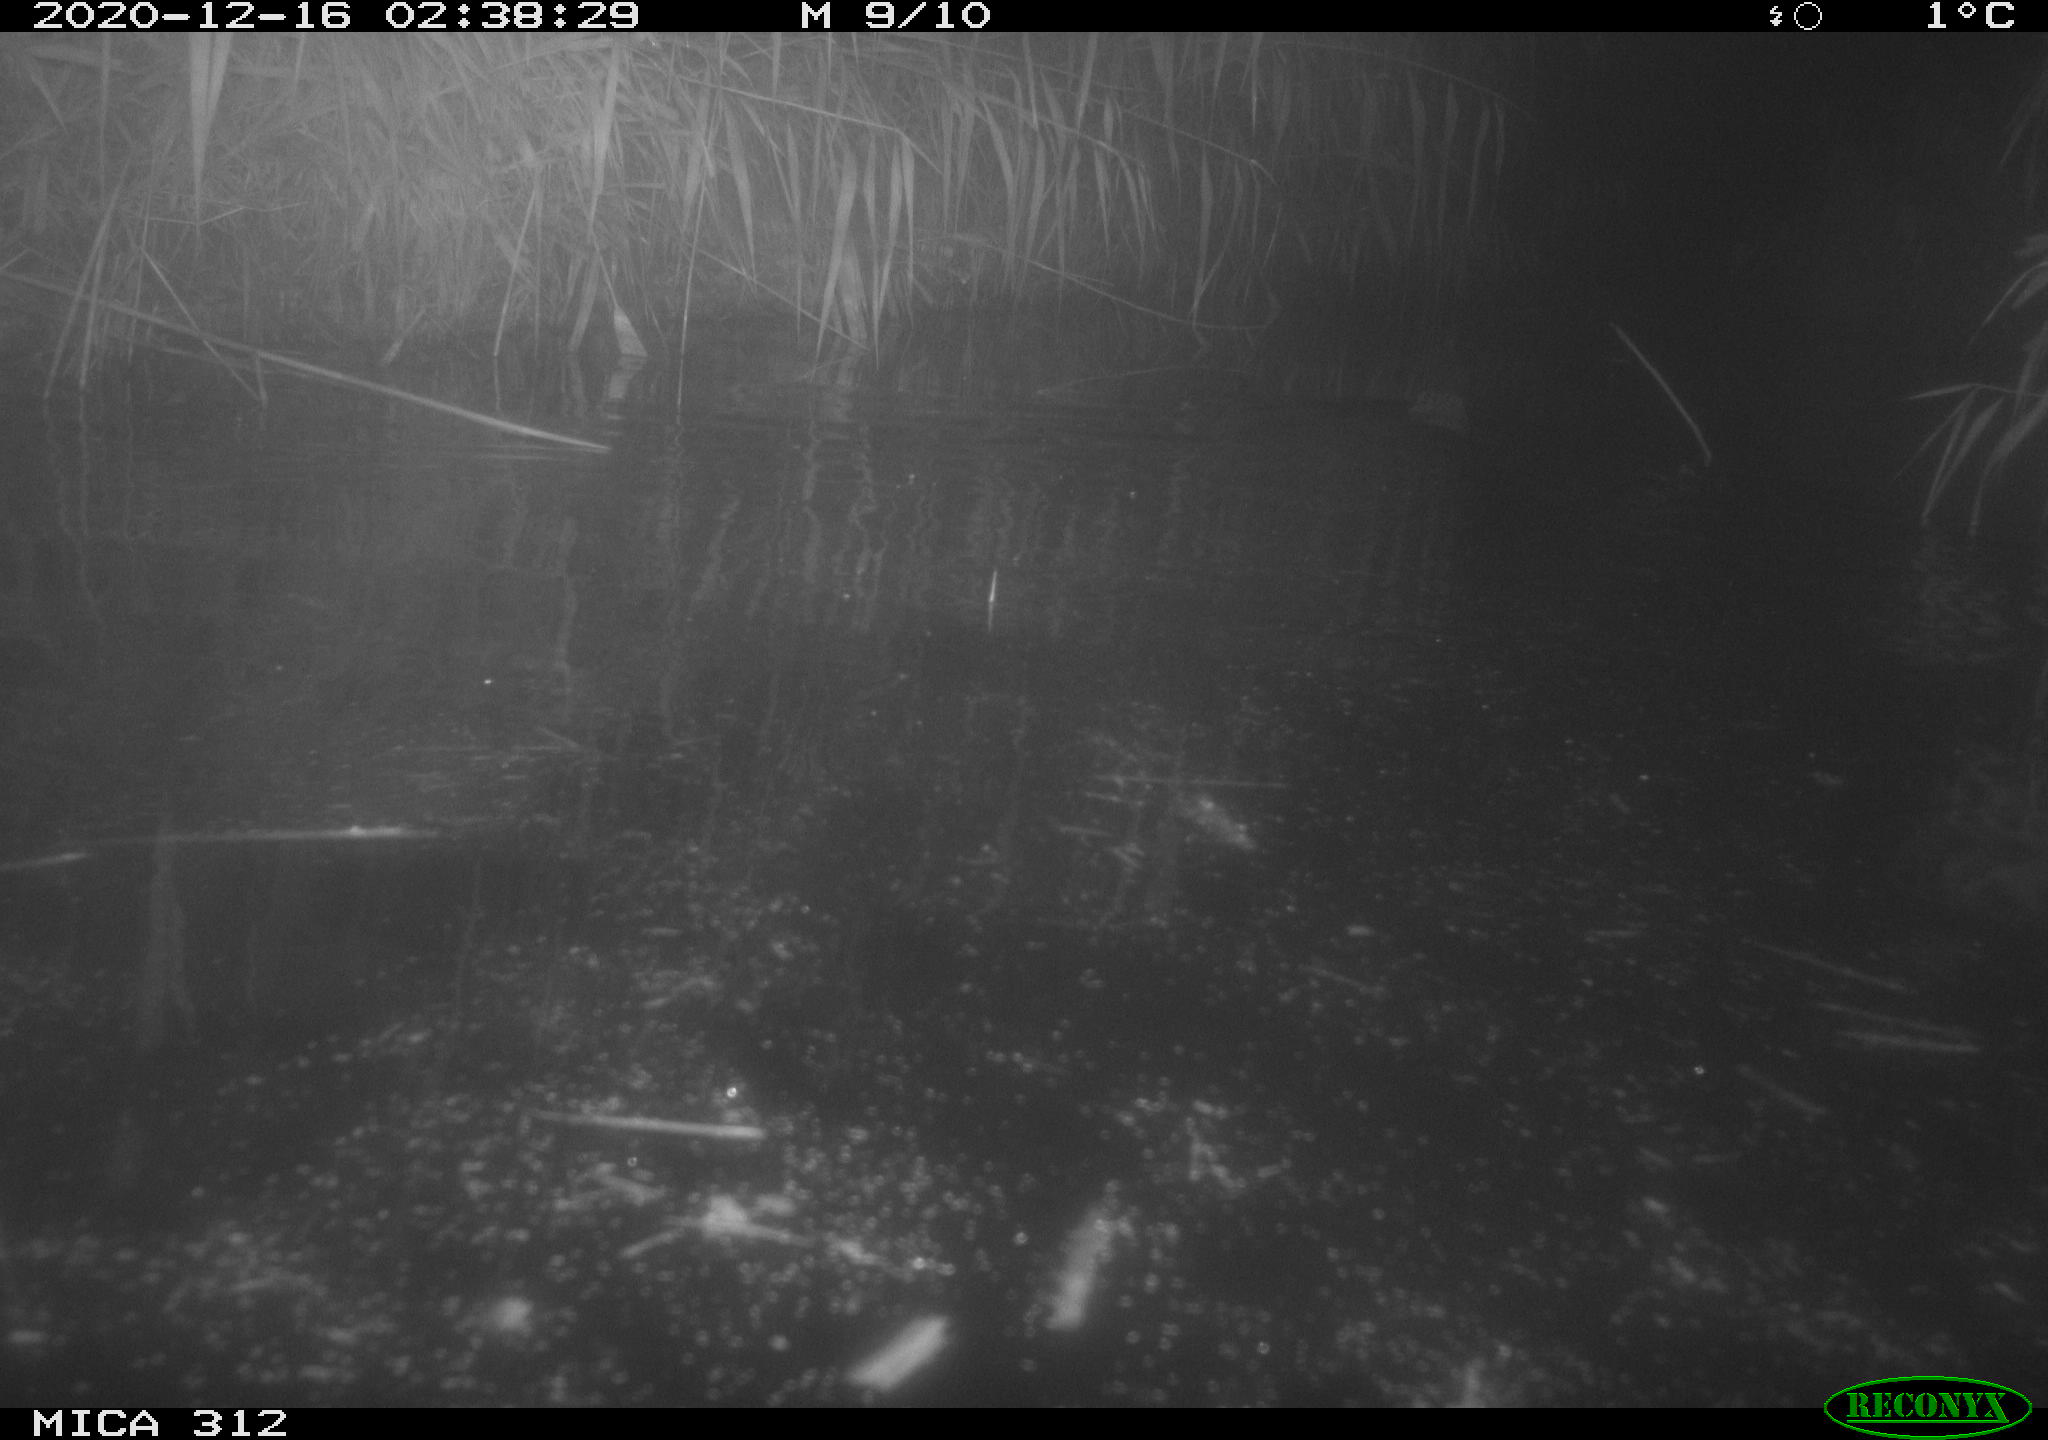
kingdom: Animalia
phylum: Chordata
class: Mammalia
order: Rodentia
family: Cricetidae
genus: Ondatra
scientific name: Ondatra zibethicus
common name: Muskrat
